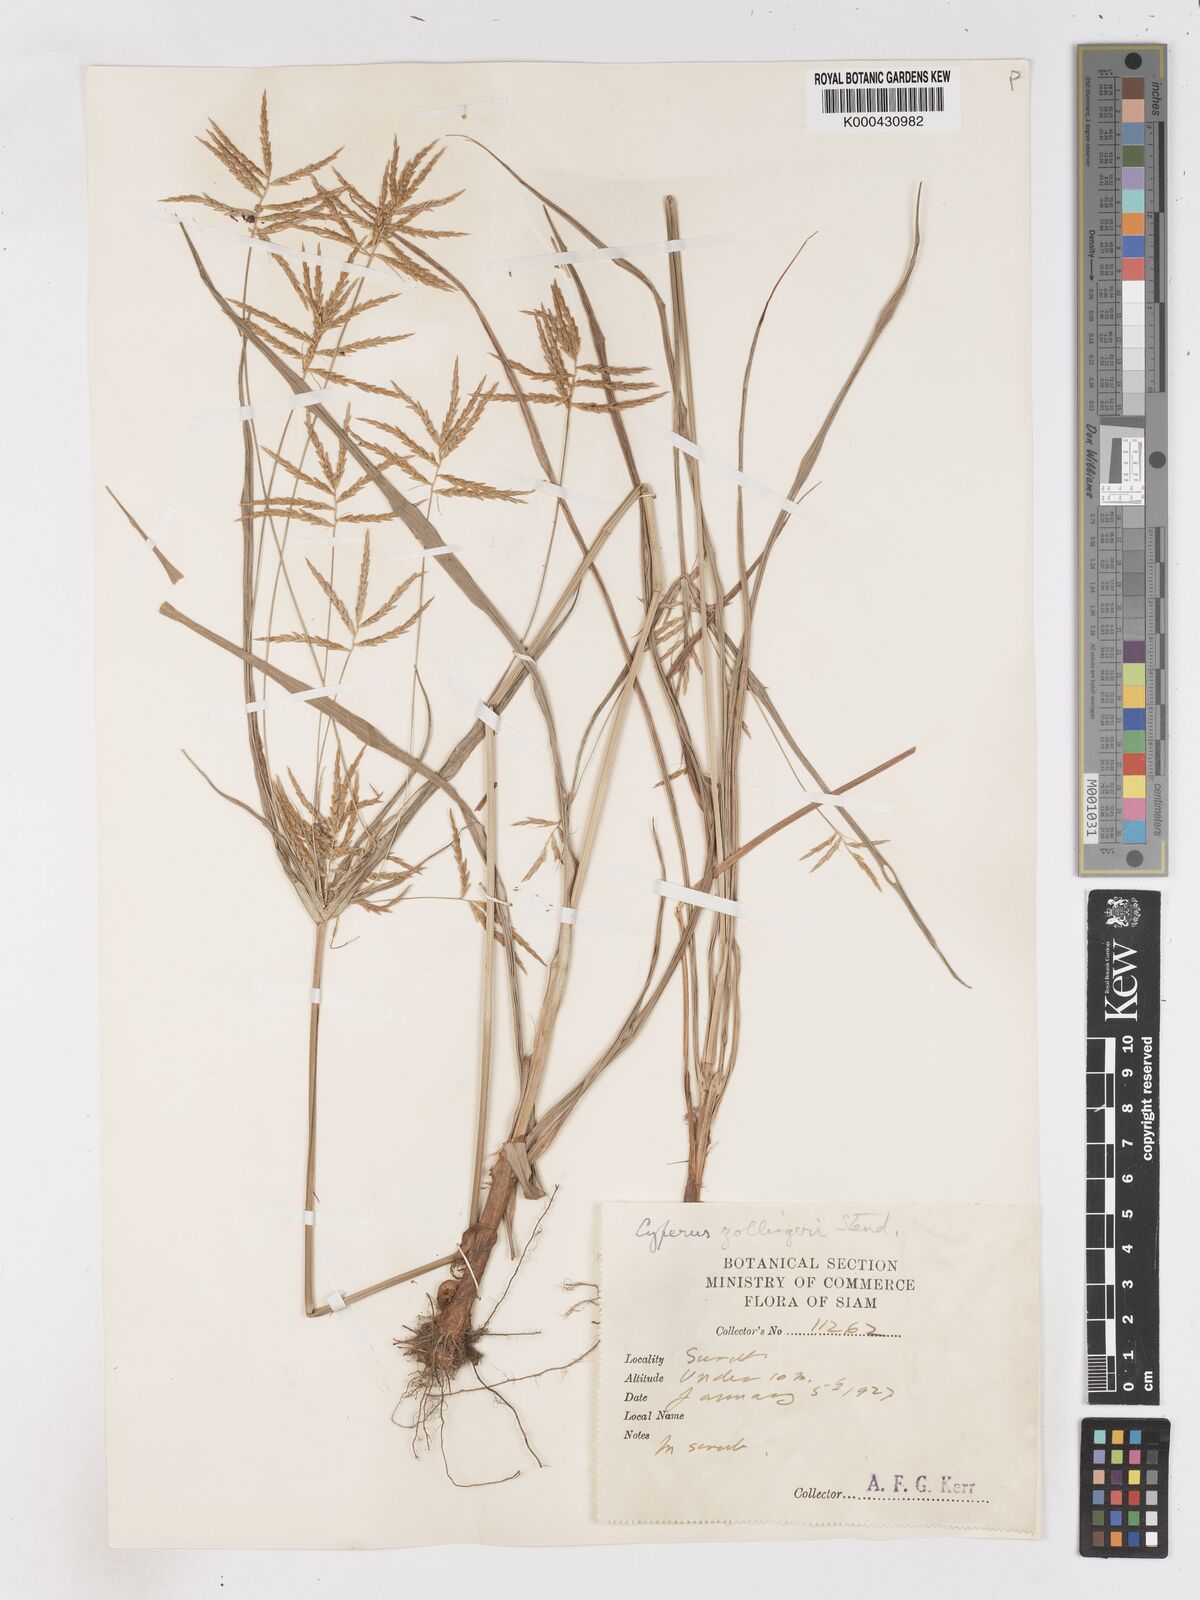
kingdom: Plantae
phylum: Tracheophyta
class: Liliopsida
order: Poales
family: Cyperaceae
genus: Cyperus
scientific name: Cyperus tenuiculmis
